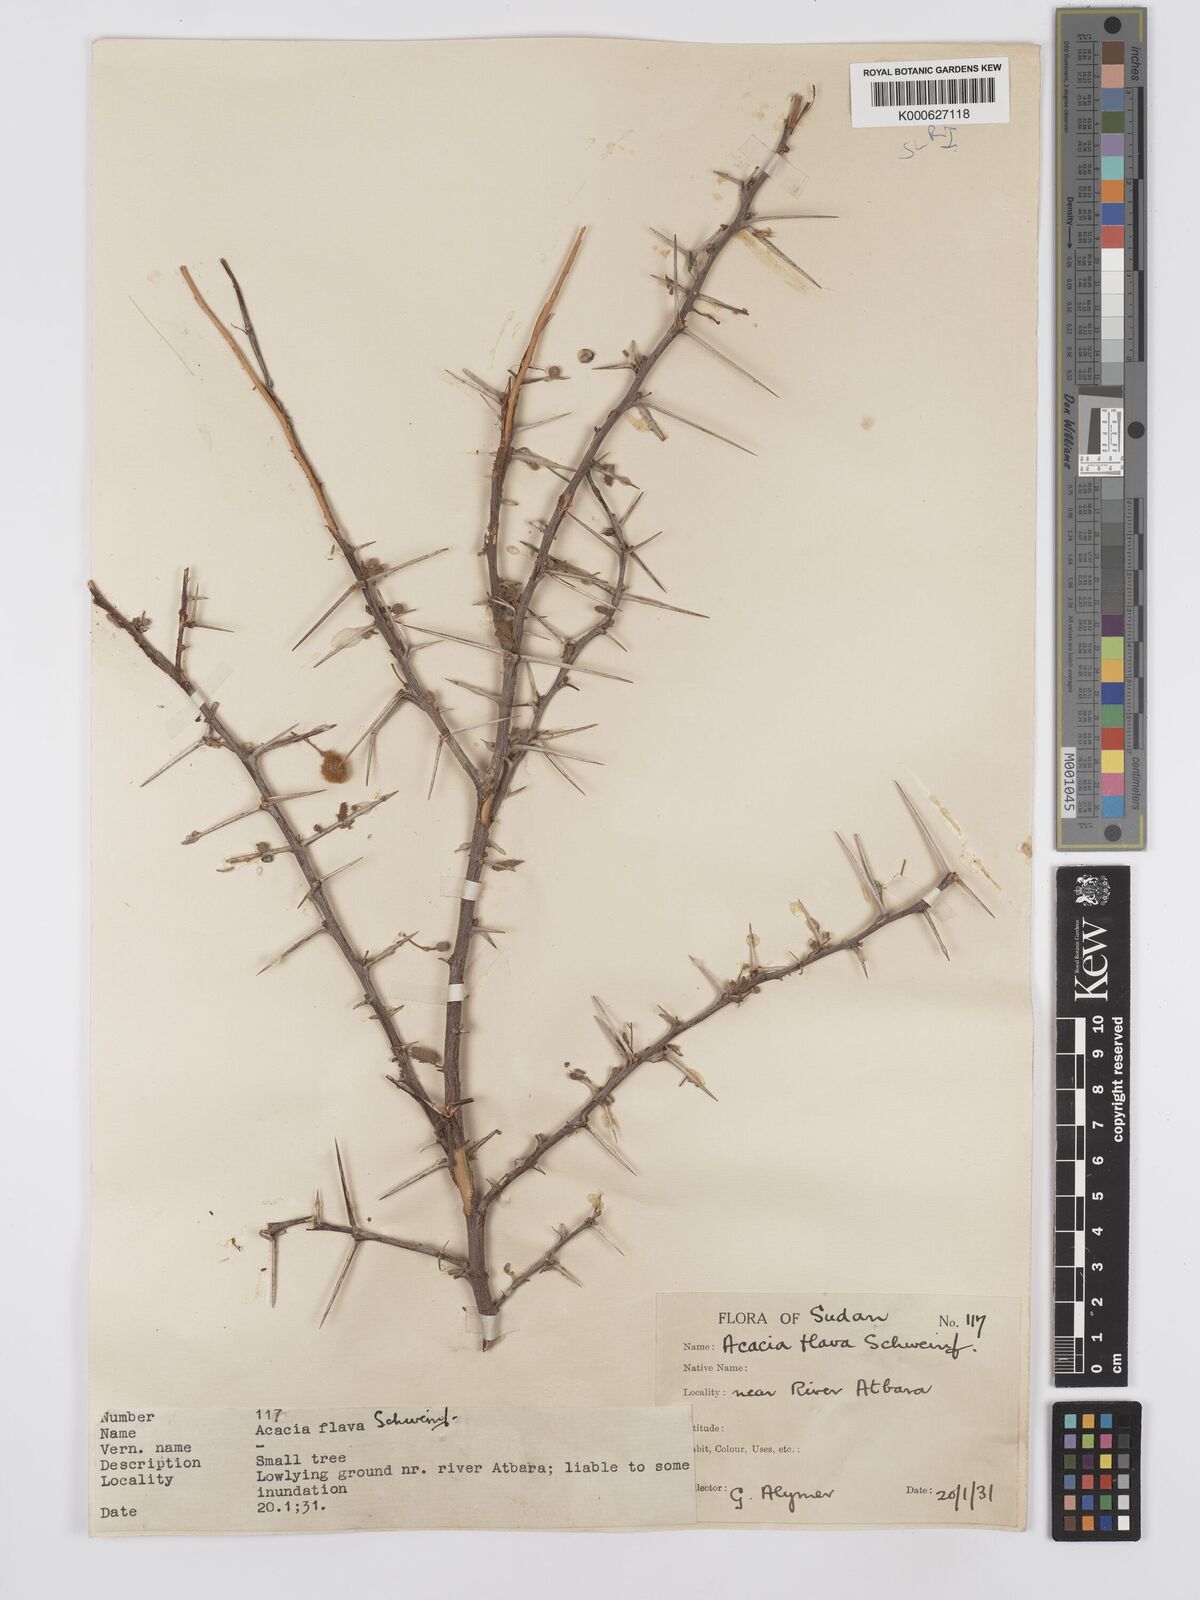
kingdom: Plantae
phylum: Tracheophyta
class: Magnoliopsida
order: Fabales
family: Fabaceae
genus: Vachellia
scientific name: Vachellia flava
